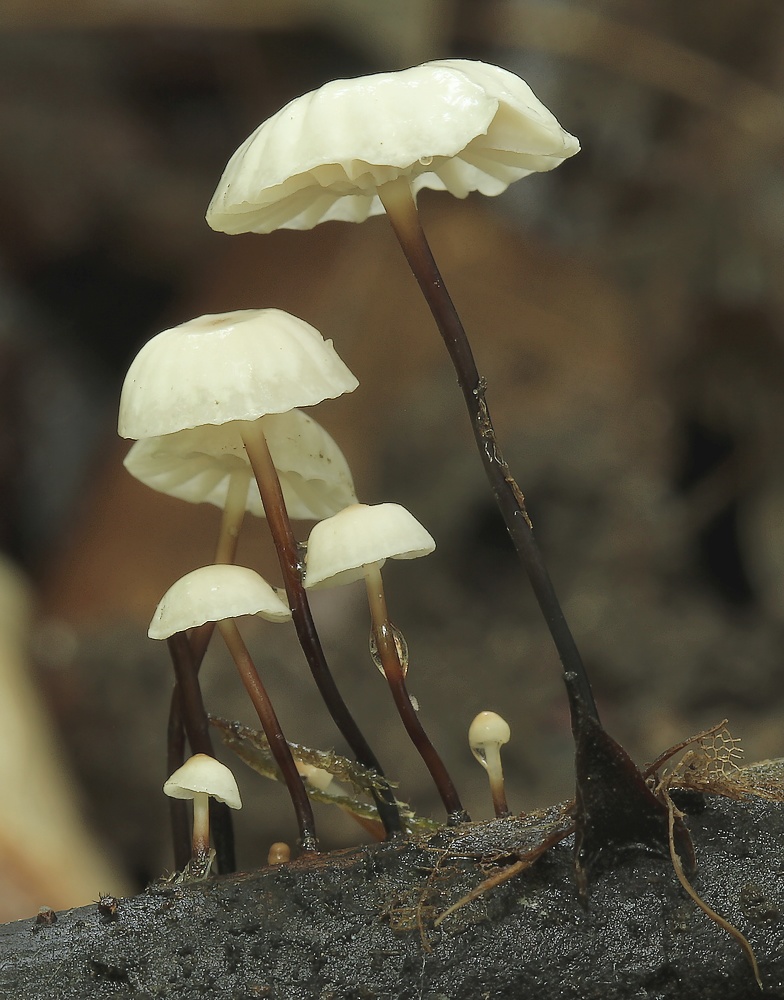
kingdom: Fungi
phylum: Basidiomycota
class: Agaricomycetes
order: Agaricales
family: Marasmiaceae
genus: Marasmius
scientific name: Marasmius rotula
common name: hjul-bruskhat
